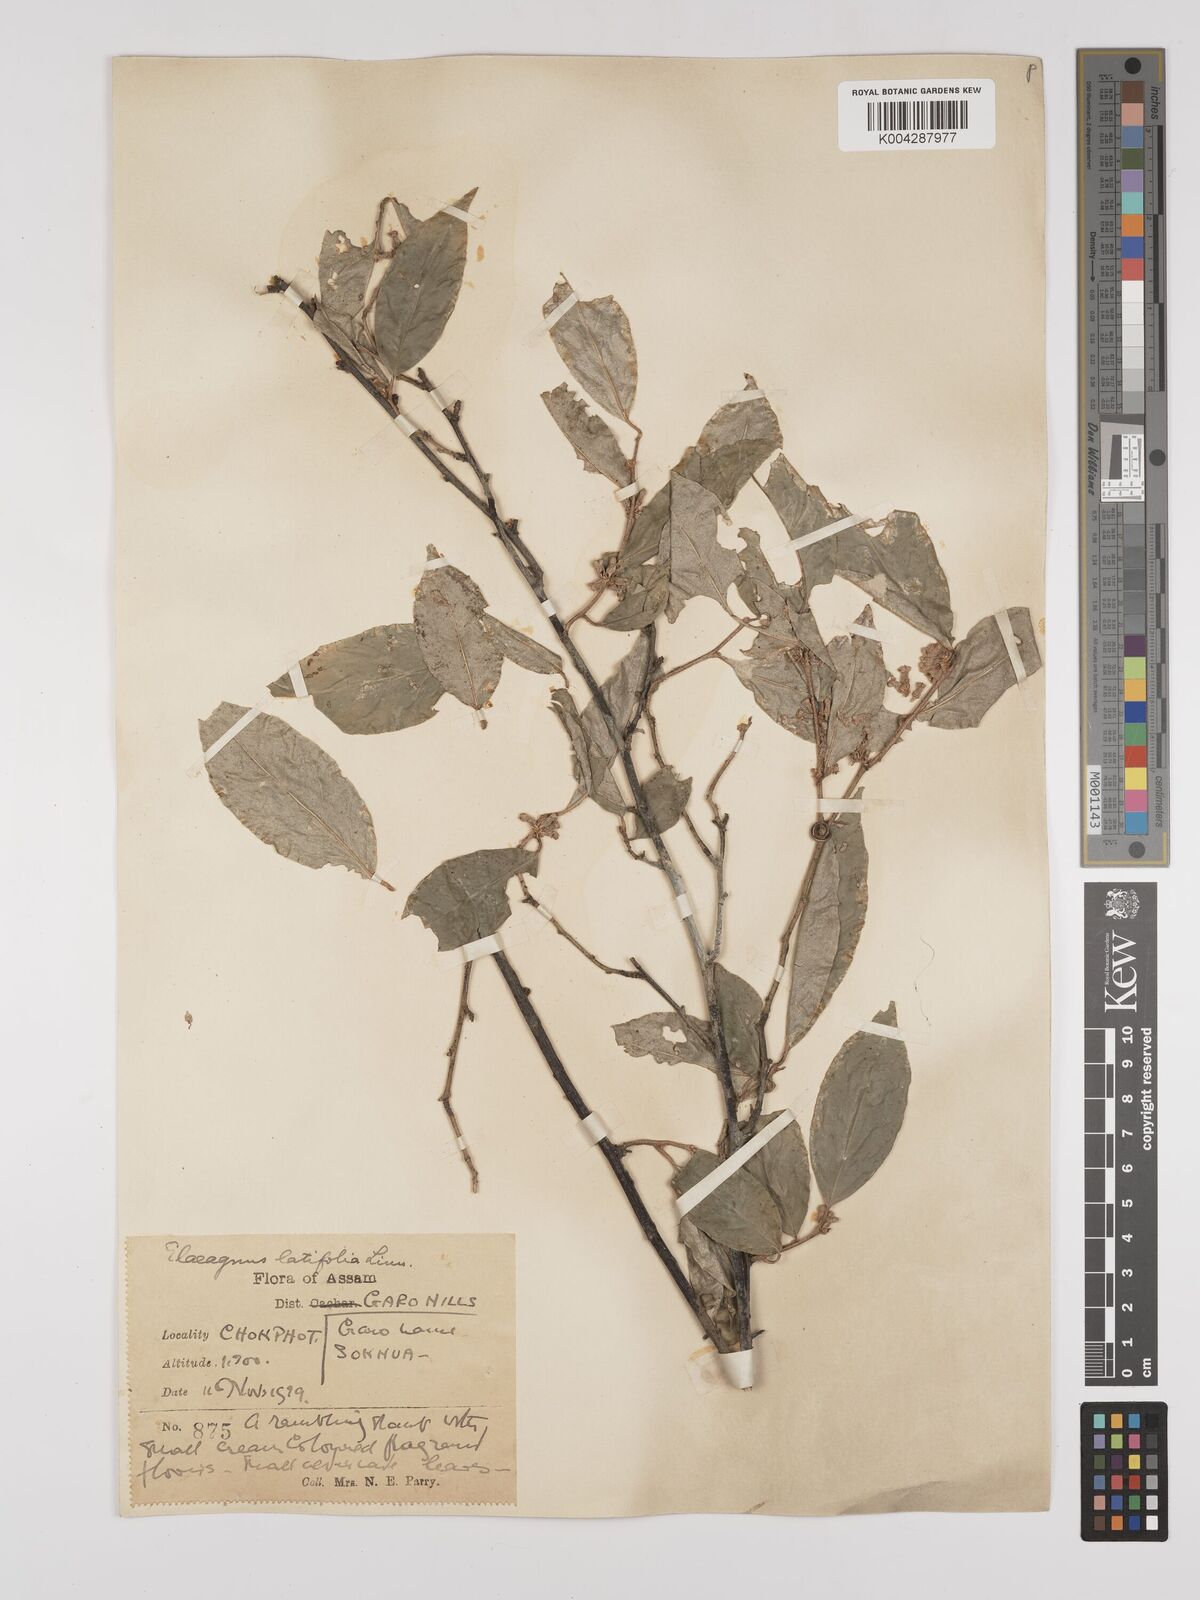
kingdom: Plantae
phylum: Tracheophyta
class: Magnoliopsida
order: Rosales
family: Elaeagnaceae
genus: Elaeagnus
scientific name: Elaeagnus latifolia
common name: Oleaster
